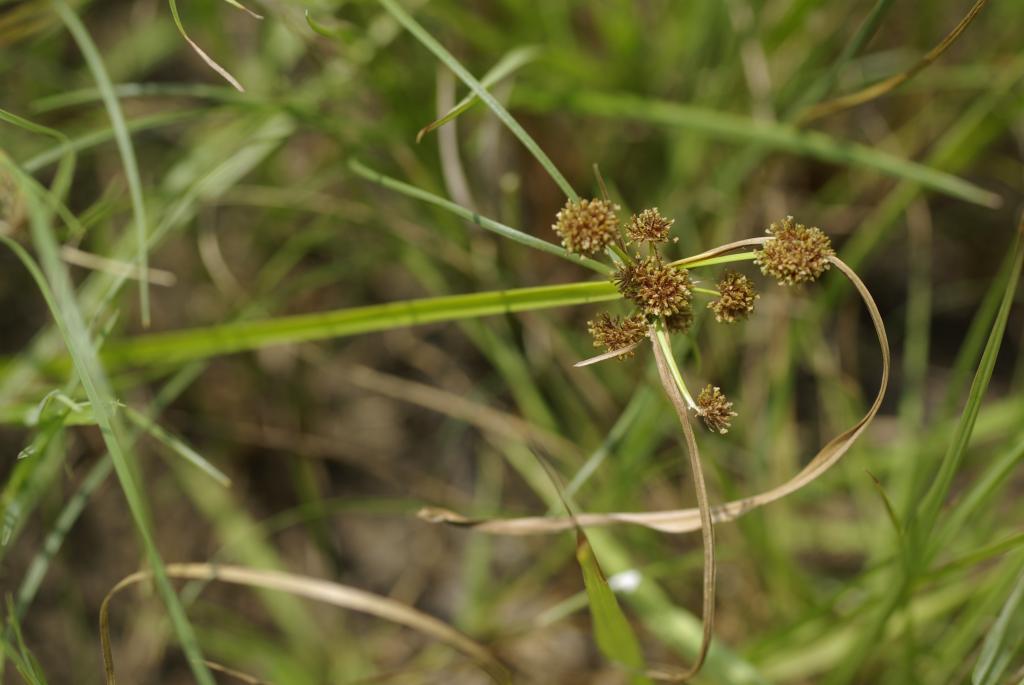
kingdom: Plantae
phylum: Tracheophyta
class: Liliopsida
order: Poales
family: Cyperaceae
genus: Cyperus
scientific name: Cyperus difformis
